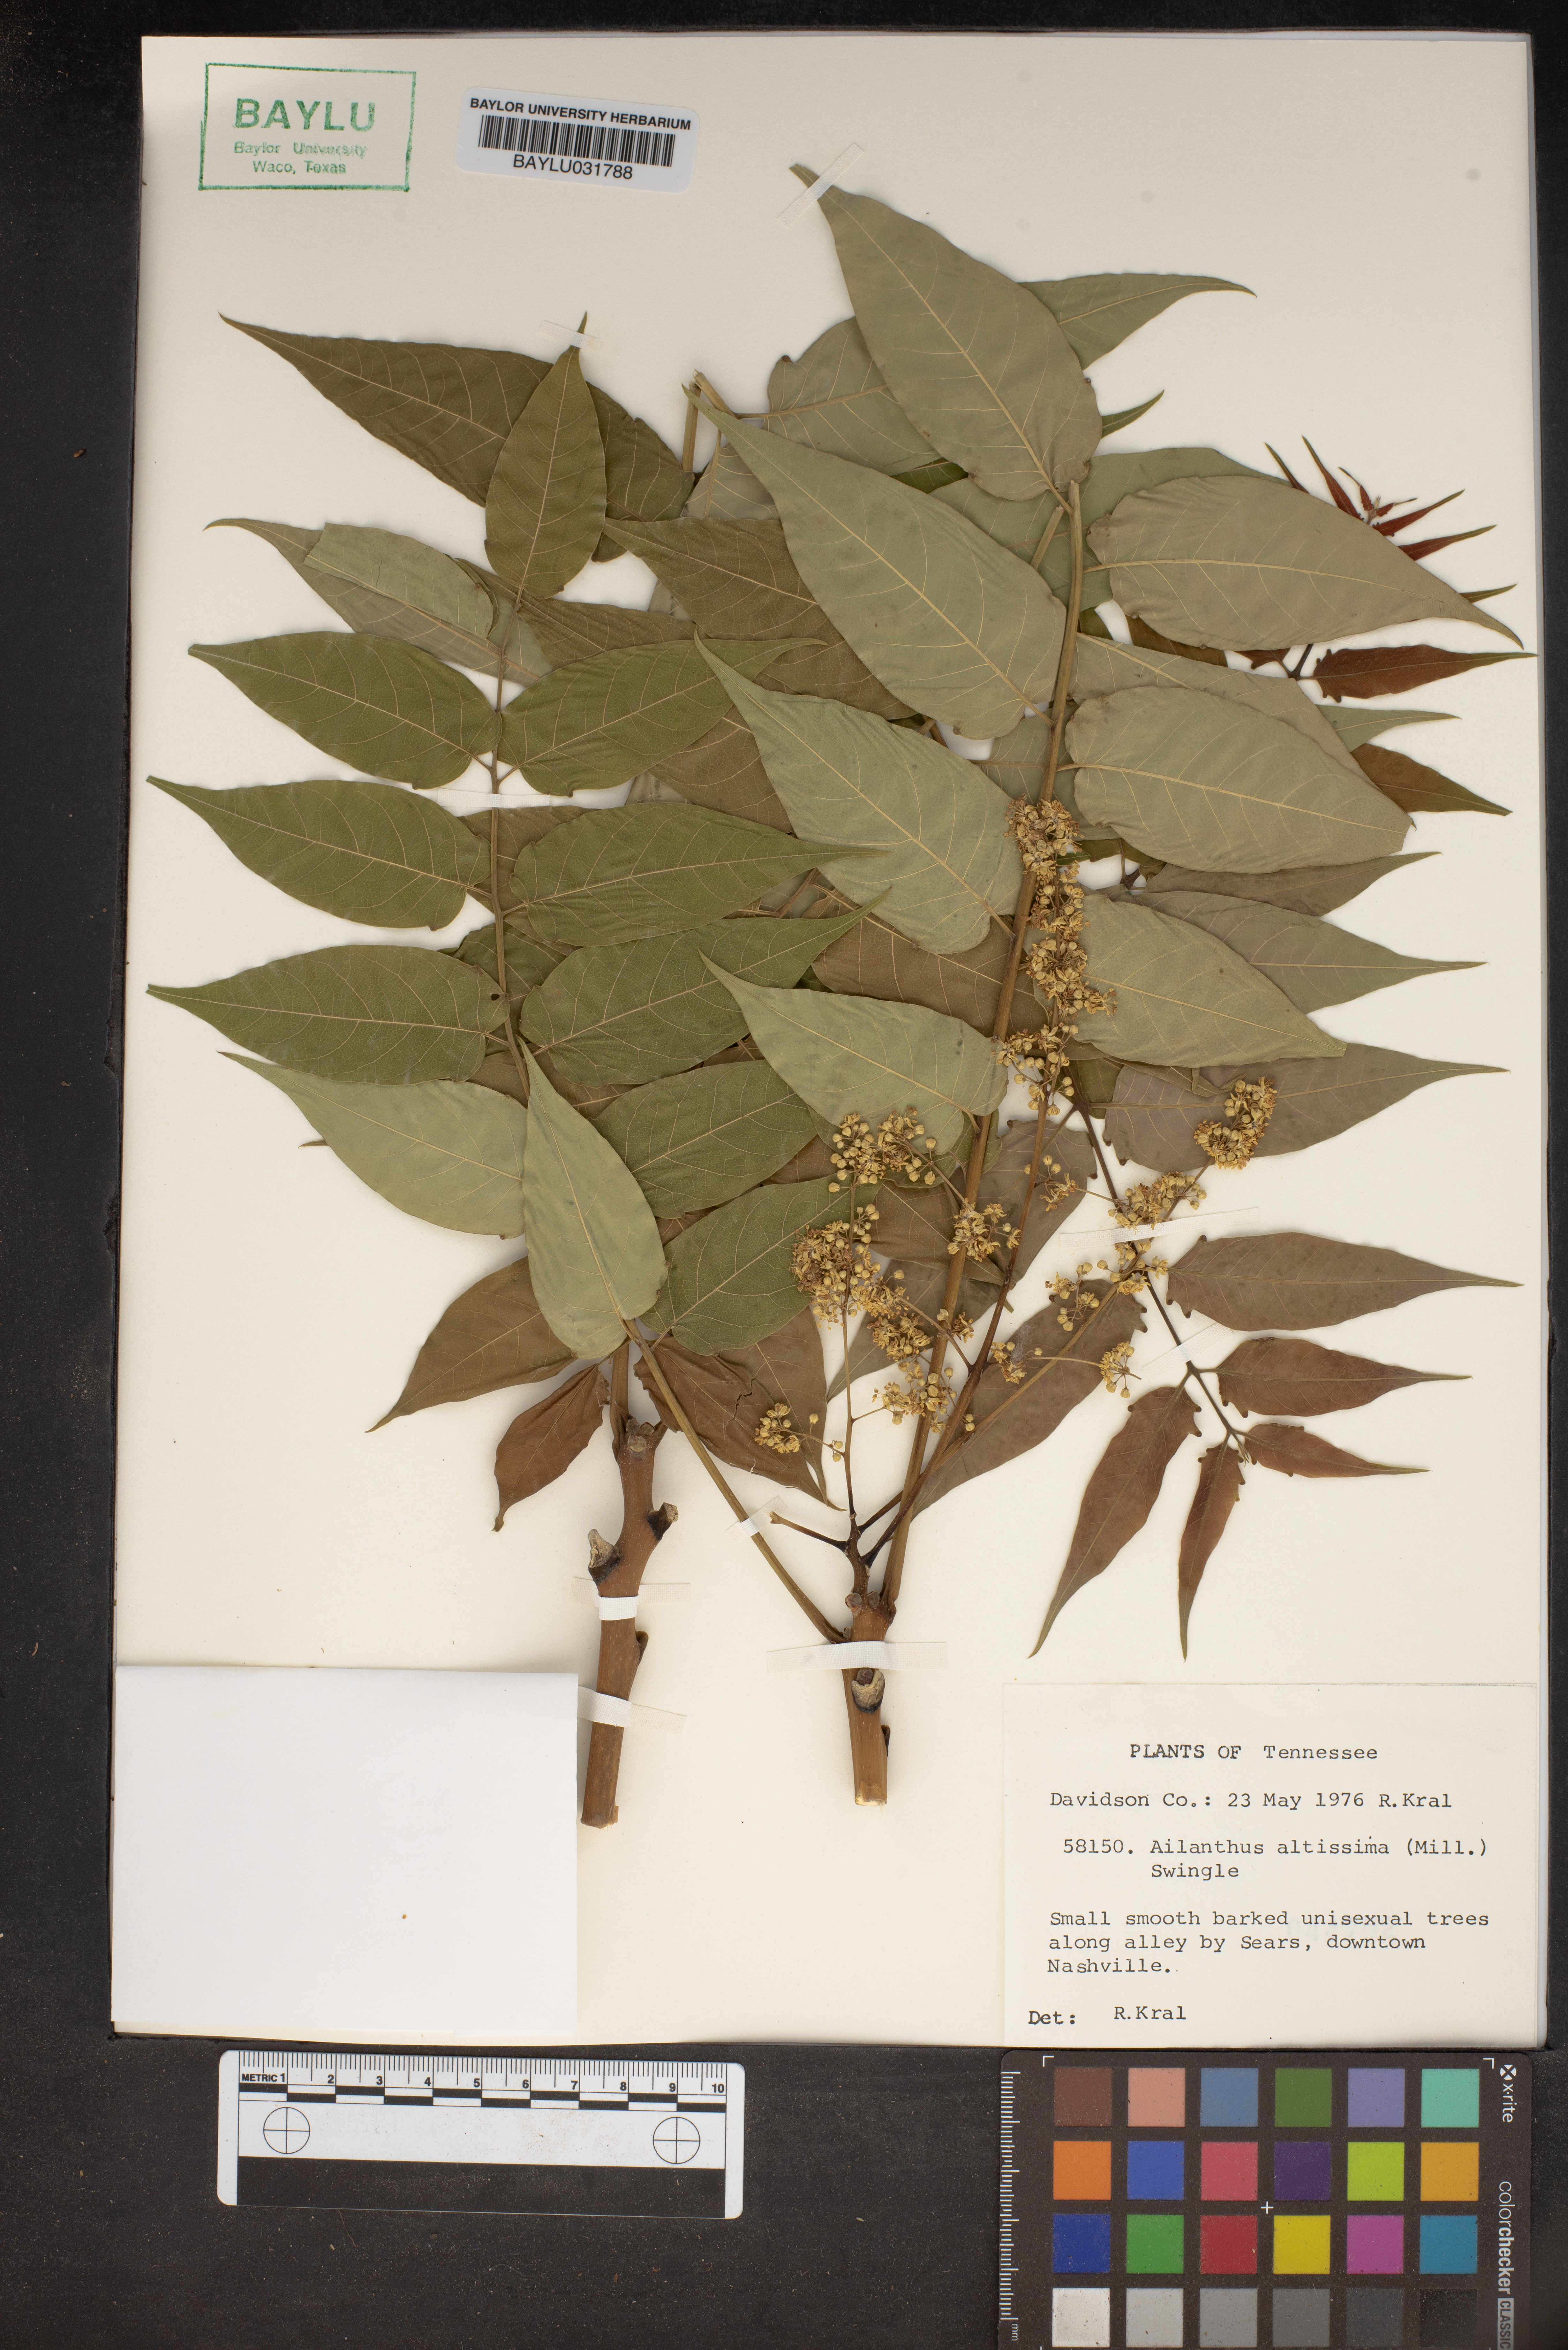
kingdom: Plantae
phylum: Tracheophyta
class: Magnoliopsida
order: Sapindales
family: Simaroubaceae
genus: Ailanthus
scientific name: Ailanthus altissima
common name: Tree-of-heaven
